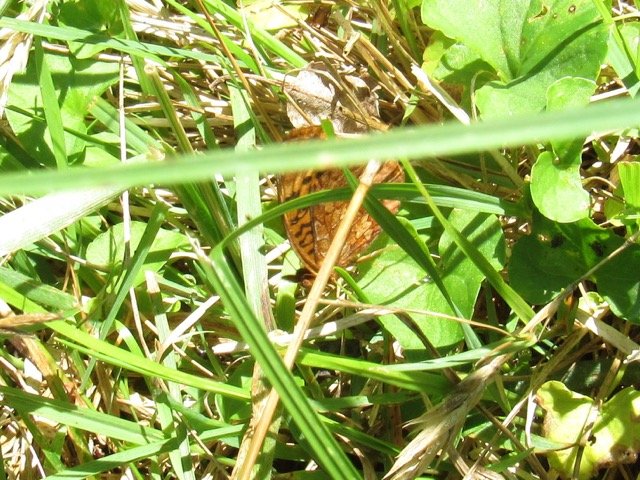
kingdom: Animalia
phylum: Arthropoda
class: Insecta
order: Lepidoptera
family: Nymphalidae
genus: Clossiana
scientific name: Clossiana toddi
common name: Meadow Fritillary
